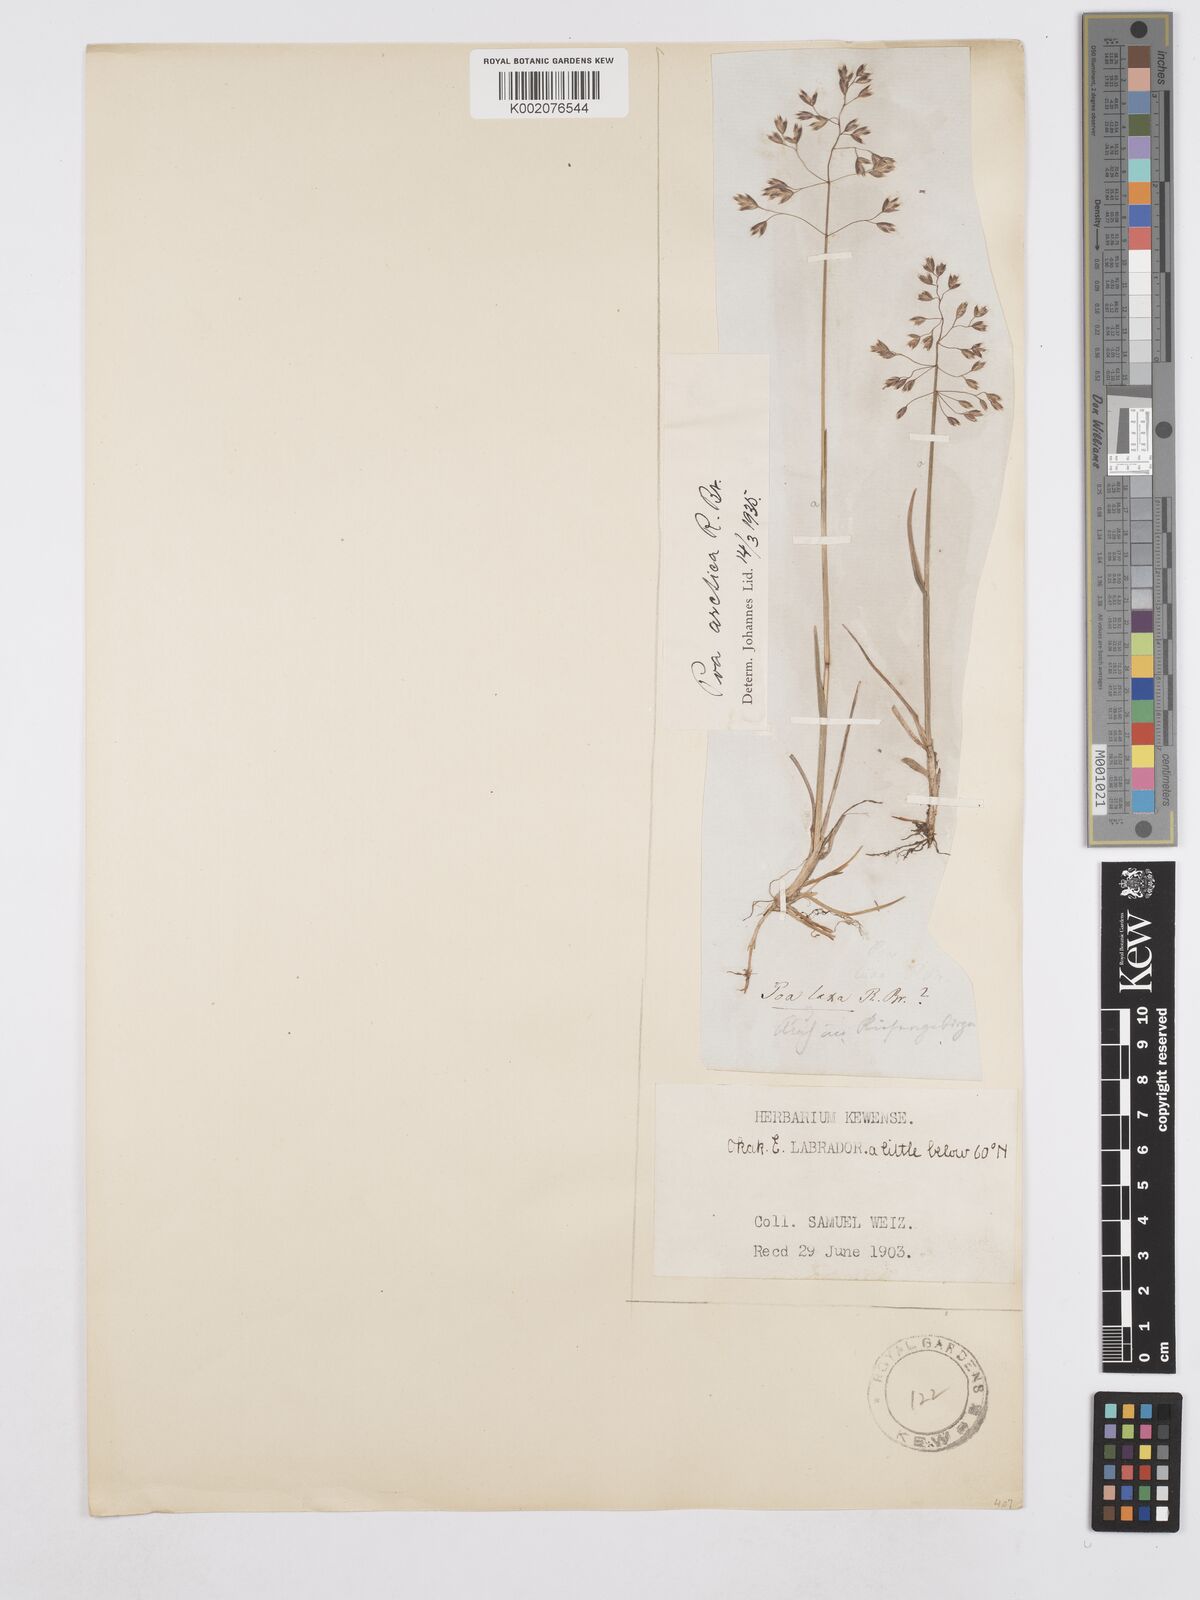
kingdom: Plantae
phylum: Tracheophyta
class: Liliopsida
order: Poales
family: Poaceae
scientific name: Poaceae
